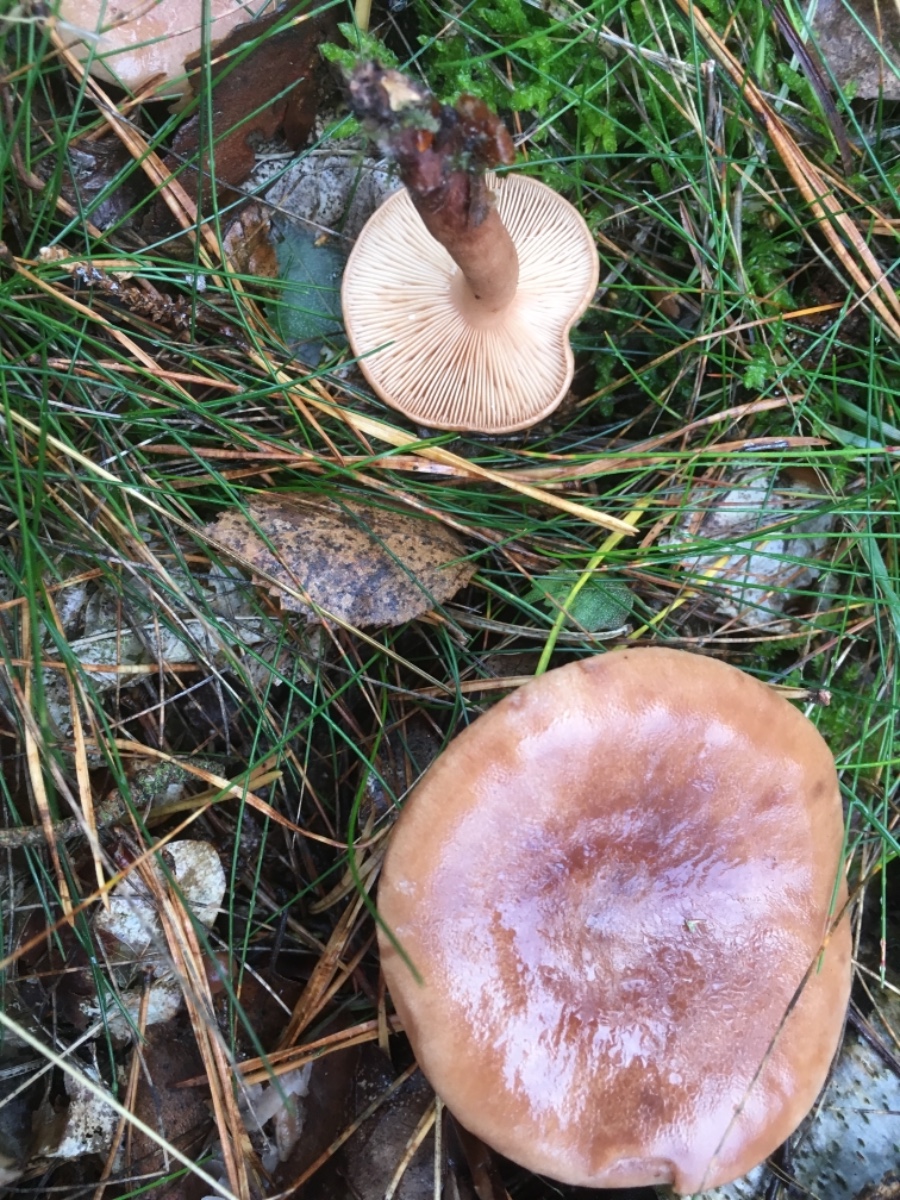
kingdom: Fungi
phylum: Basidiomycota
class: Agaricomycetes
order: Russulales
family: Russulaceae
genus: Lactarius
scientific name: Lactarius
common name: mælkehat
